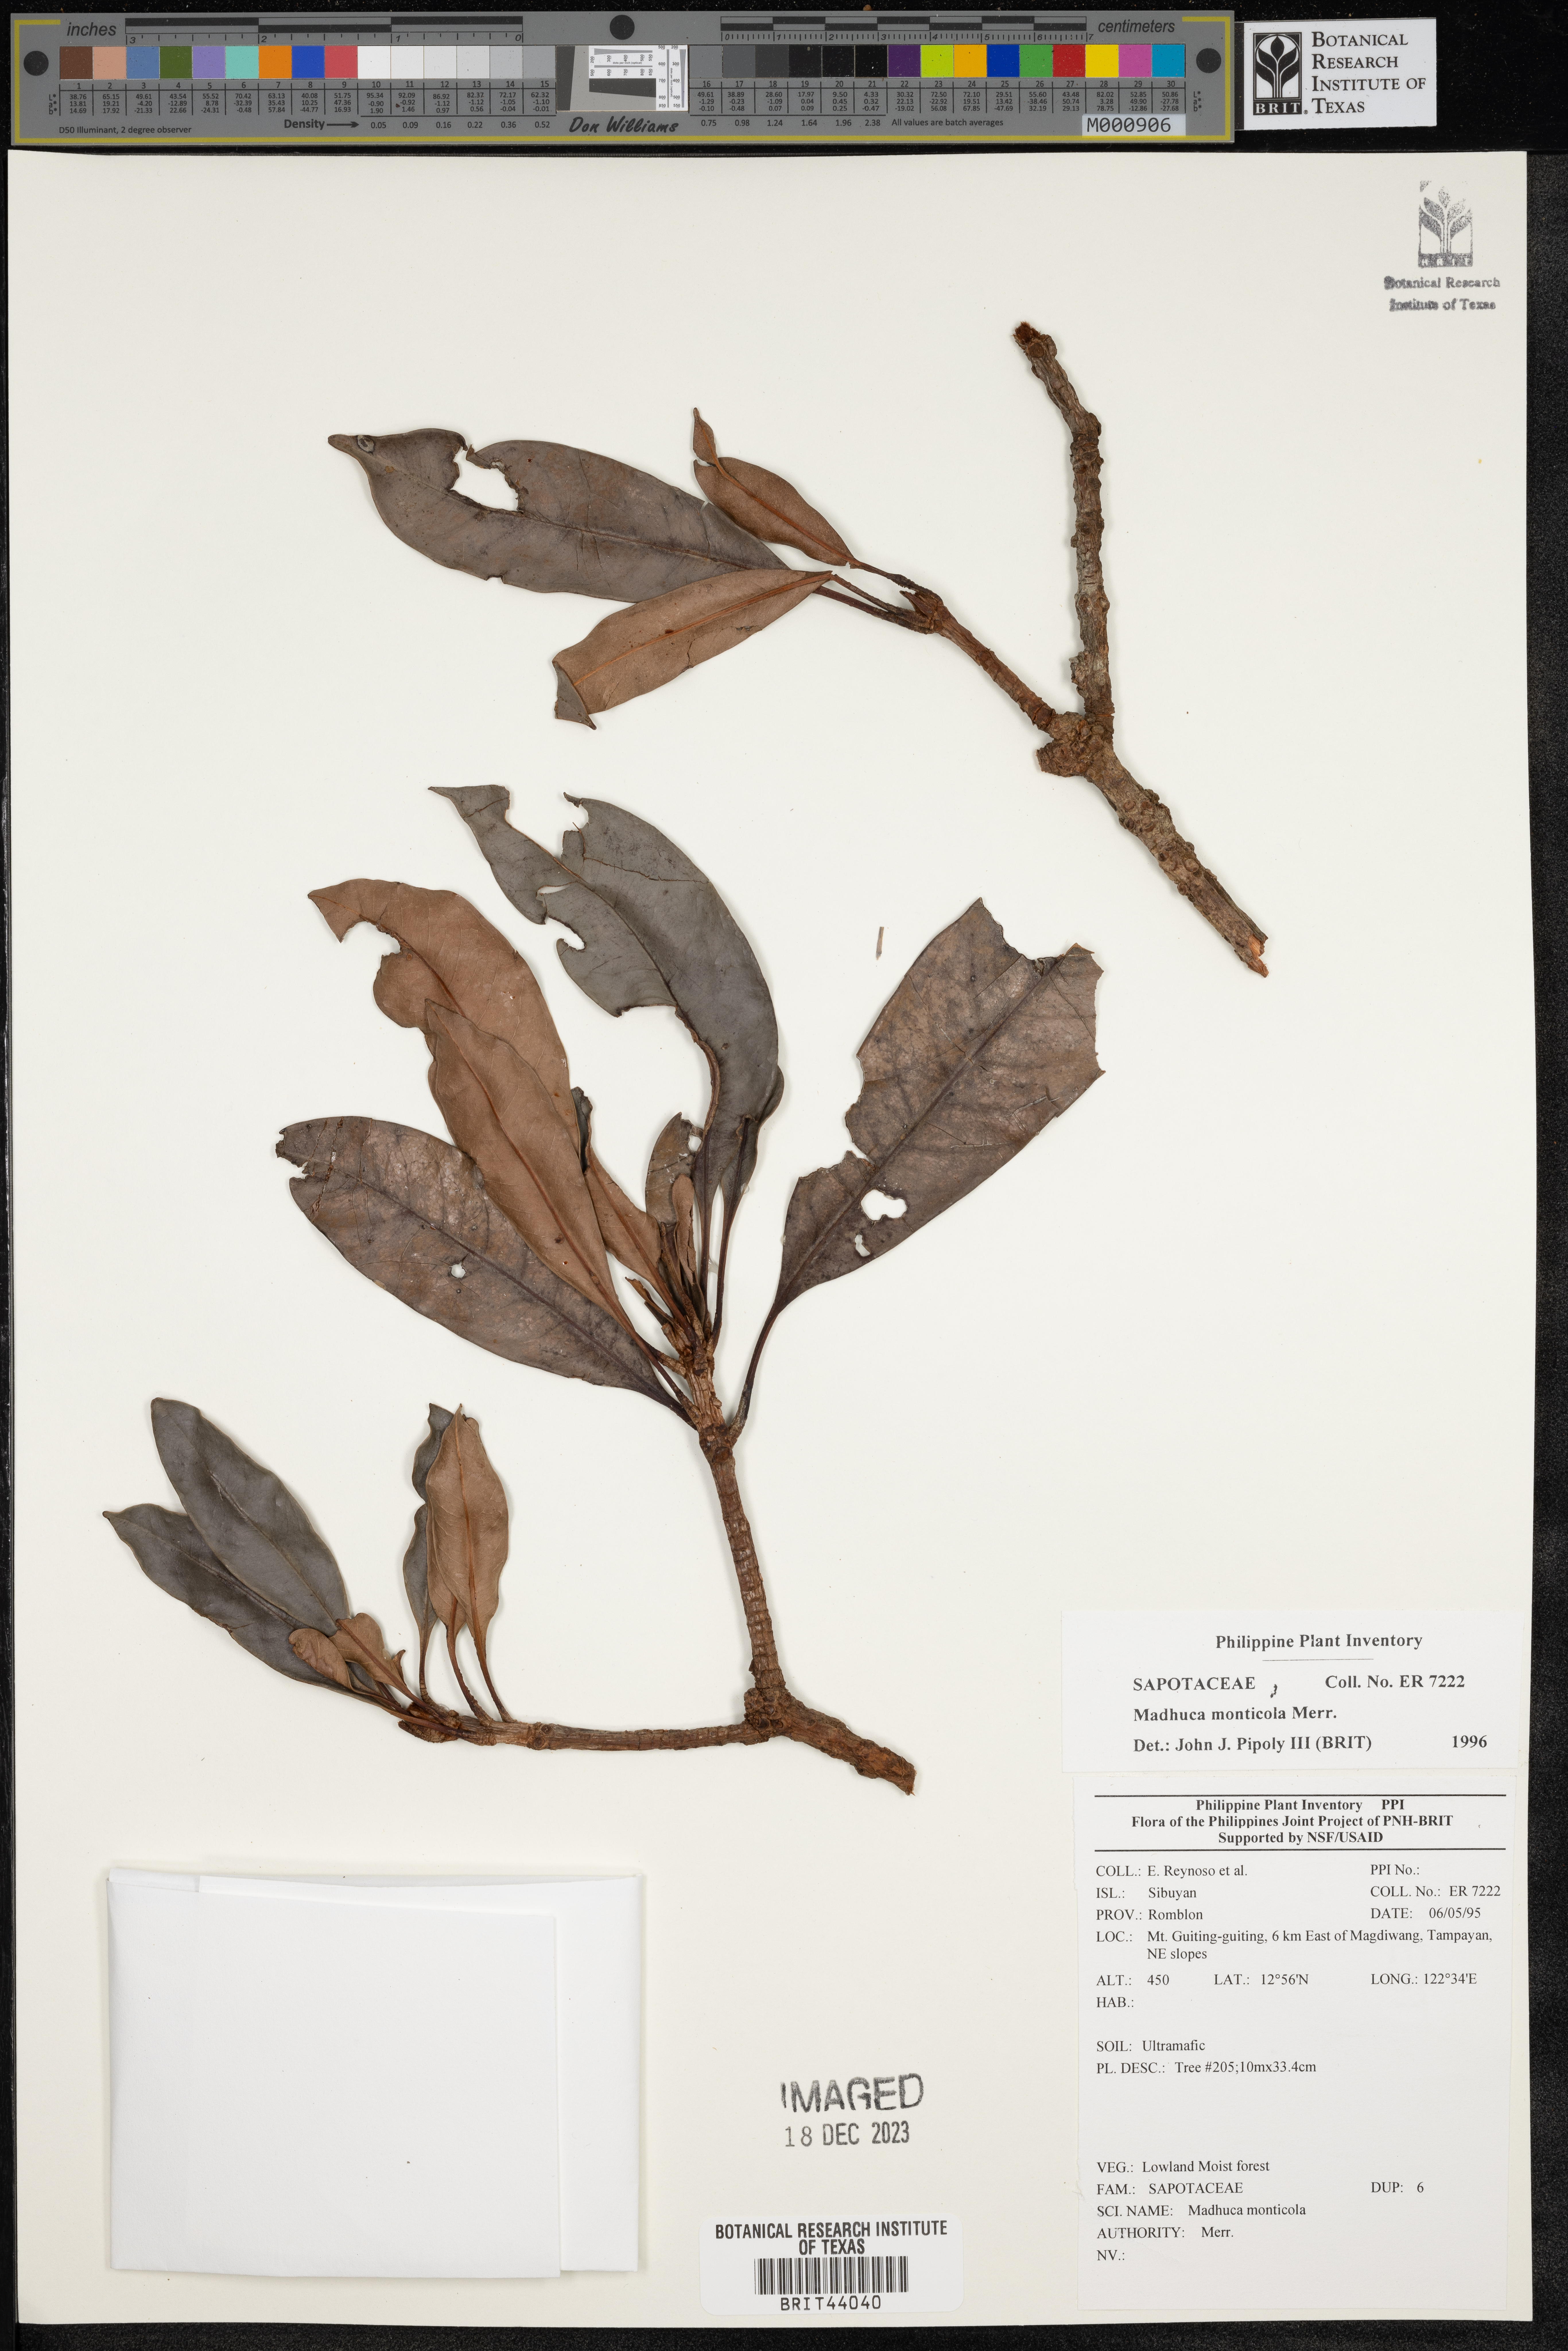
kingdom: Plantae
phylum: Tracheophyta
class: Magnoliopsida
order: Ericales
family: Sapotaceae
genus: Madhuca
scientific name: Madhuca monticola
